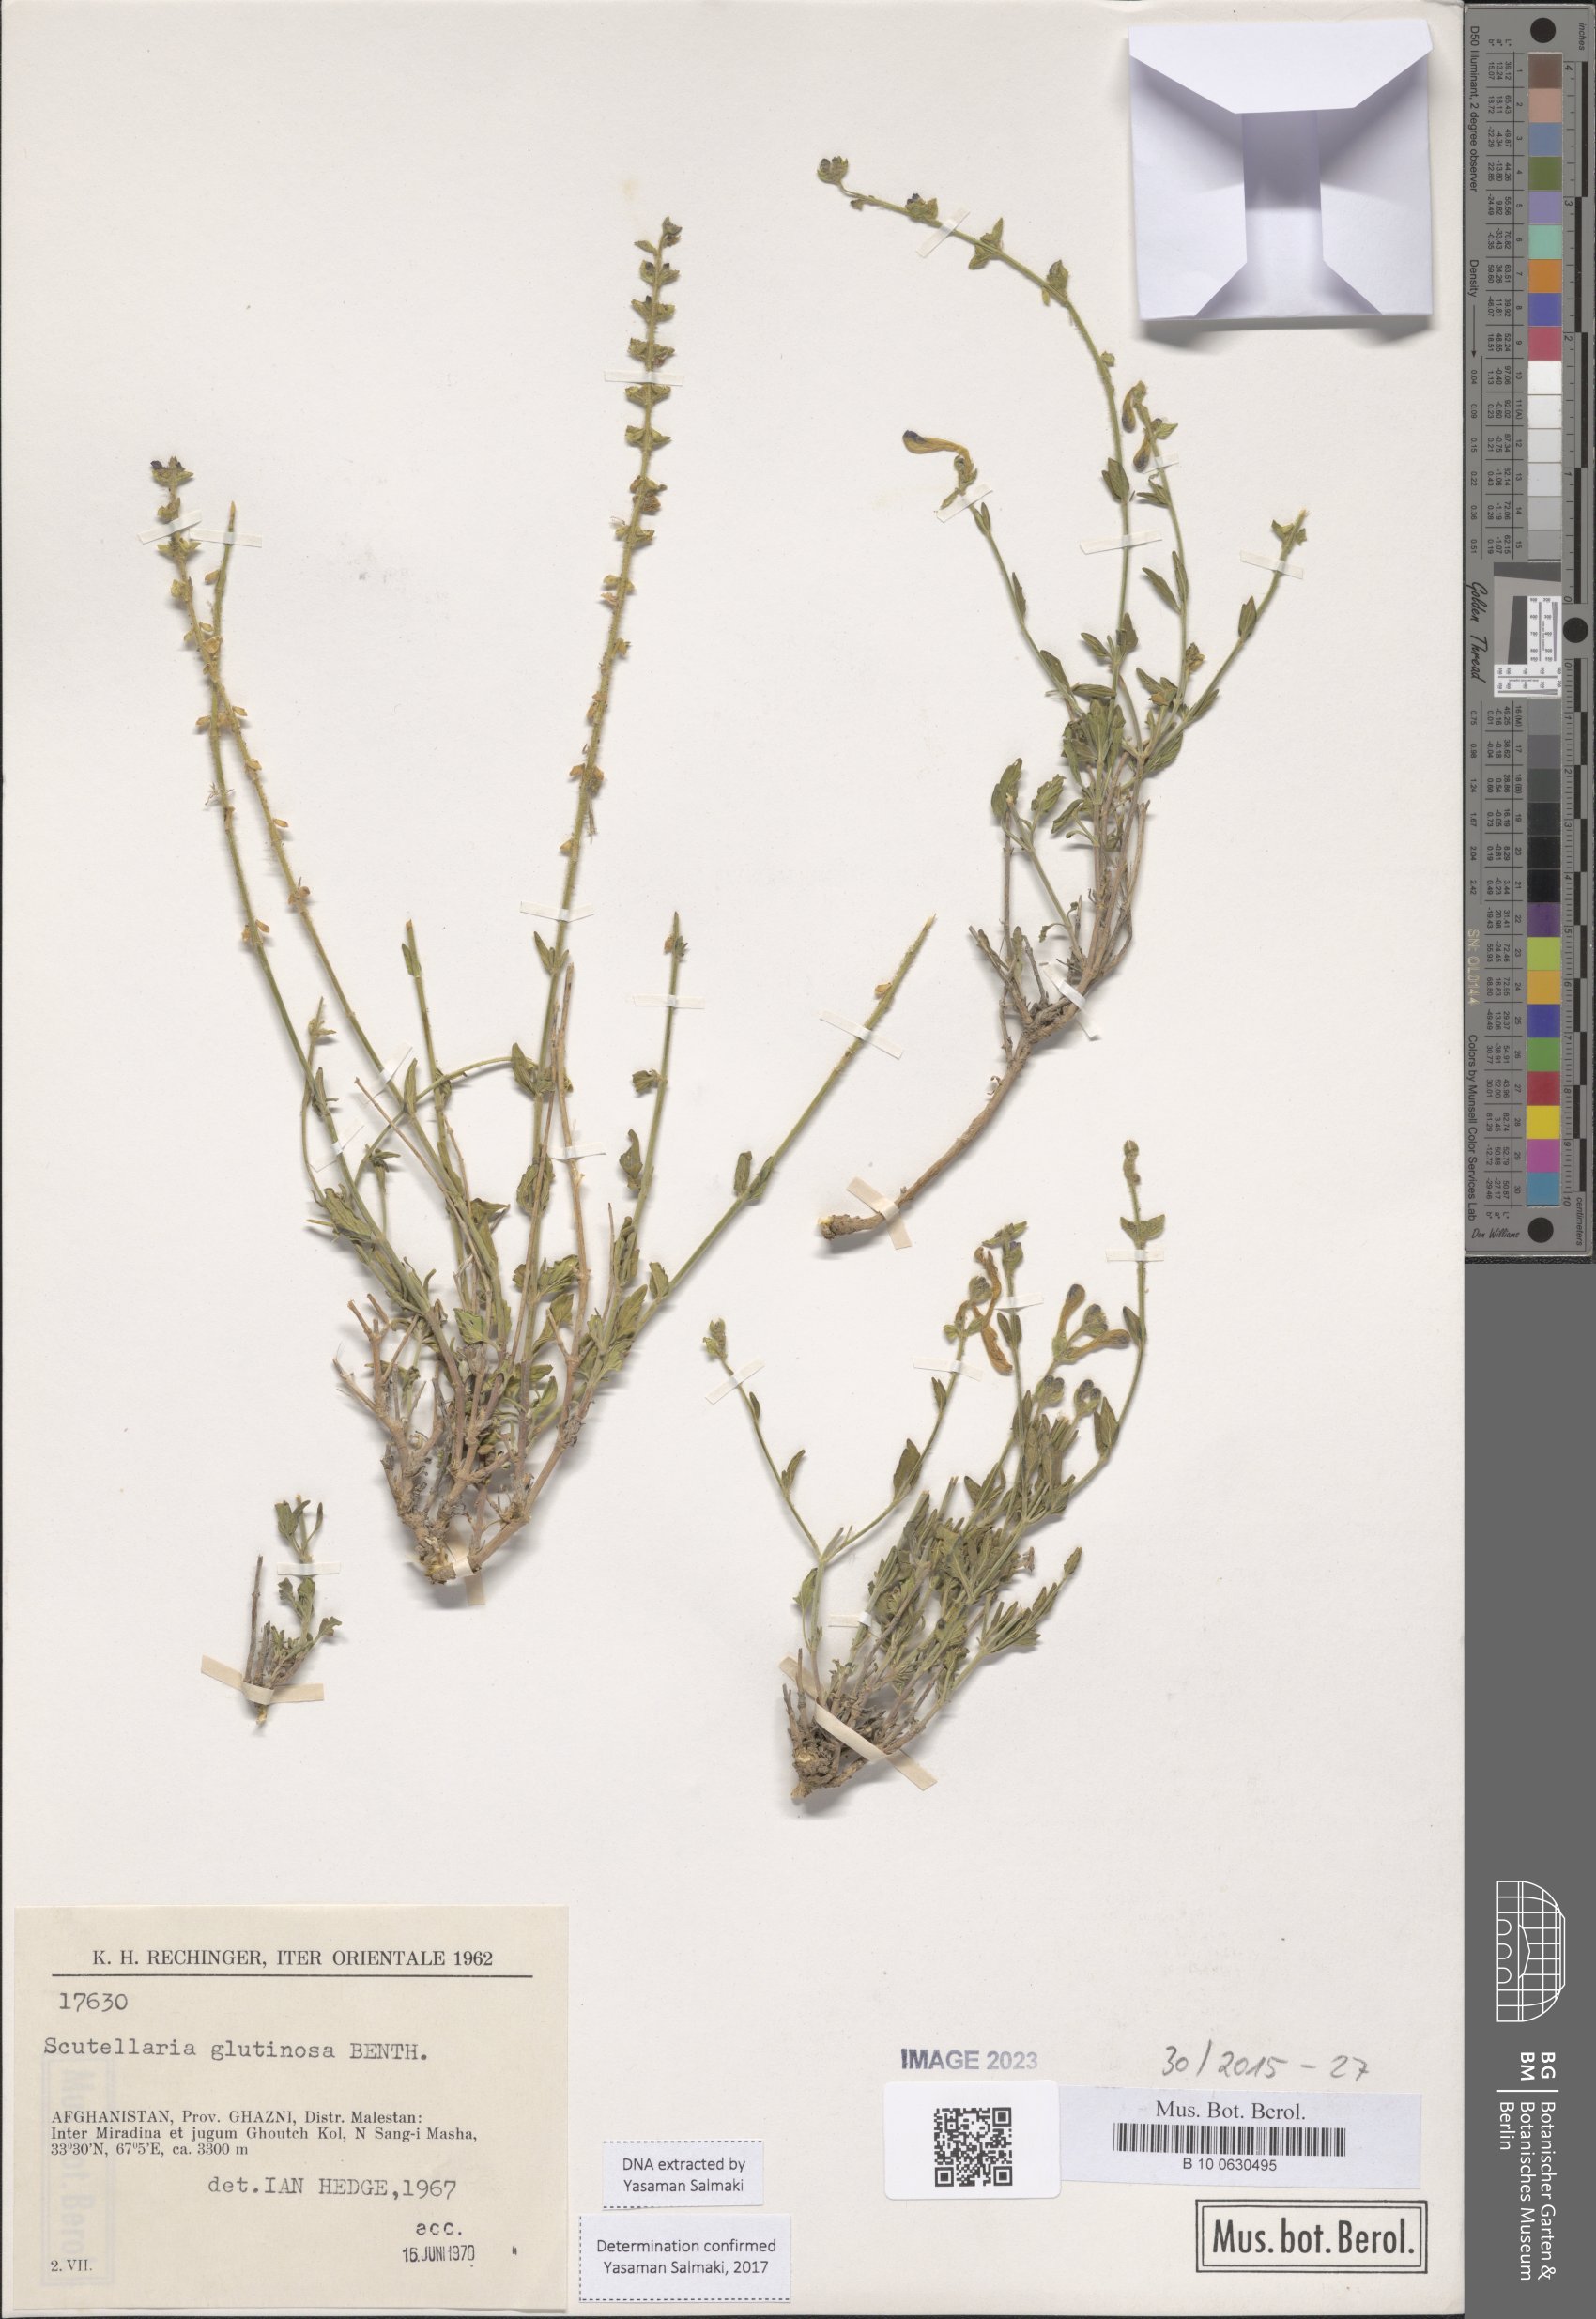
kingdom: Plantae
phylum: Tracheophyta
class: Magnoliopsida
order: Lamiales
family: Lamiaceae
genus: Scutellaria
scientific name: Scutellaria glutinosa
